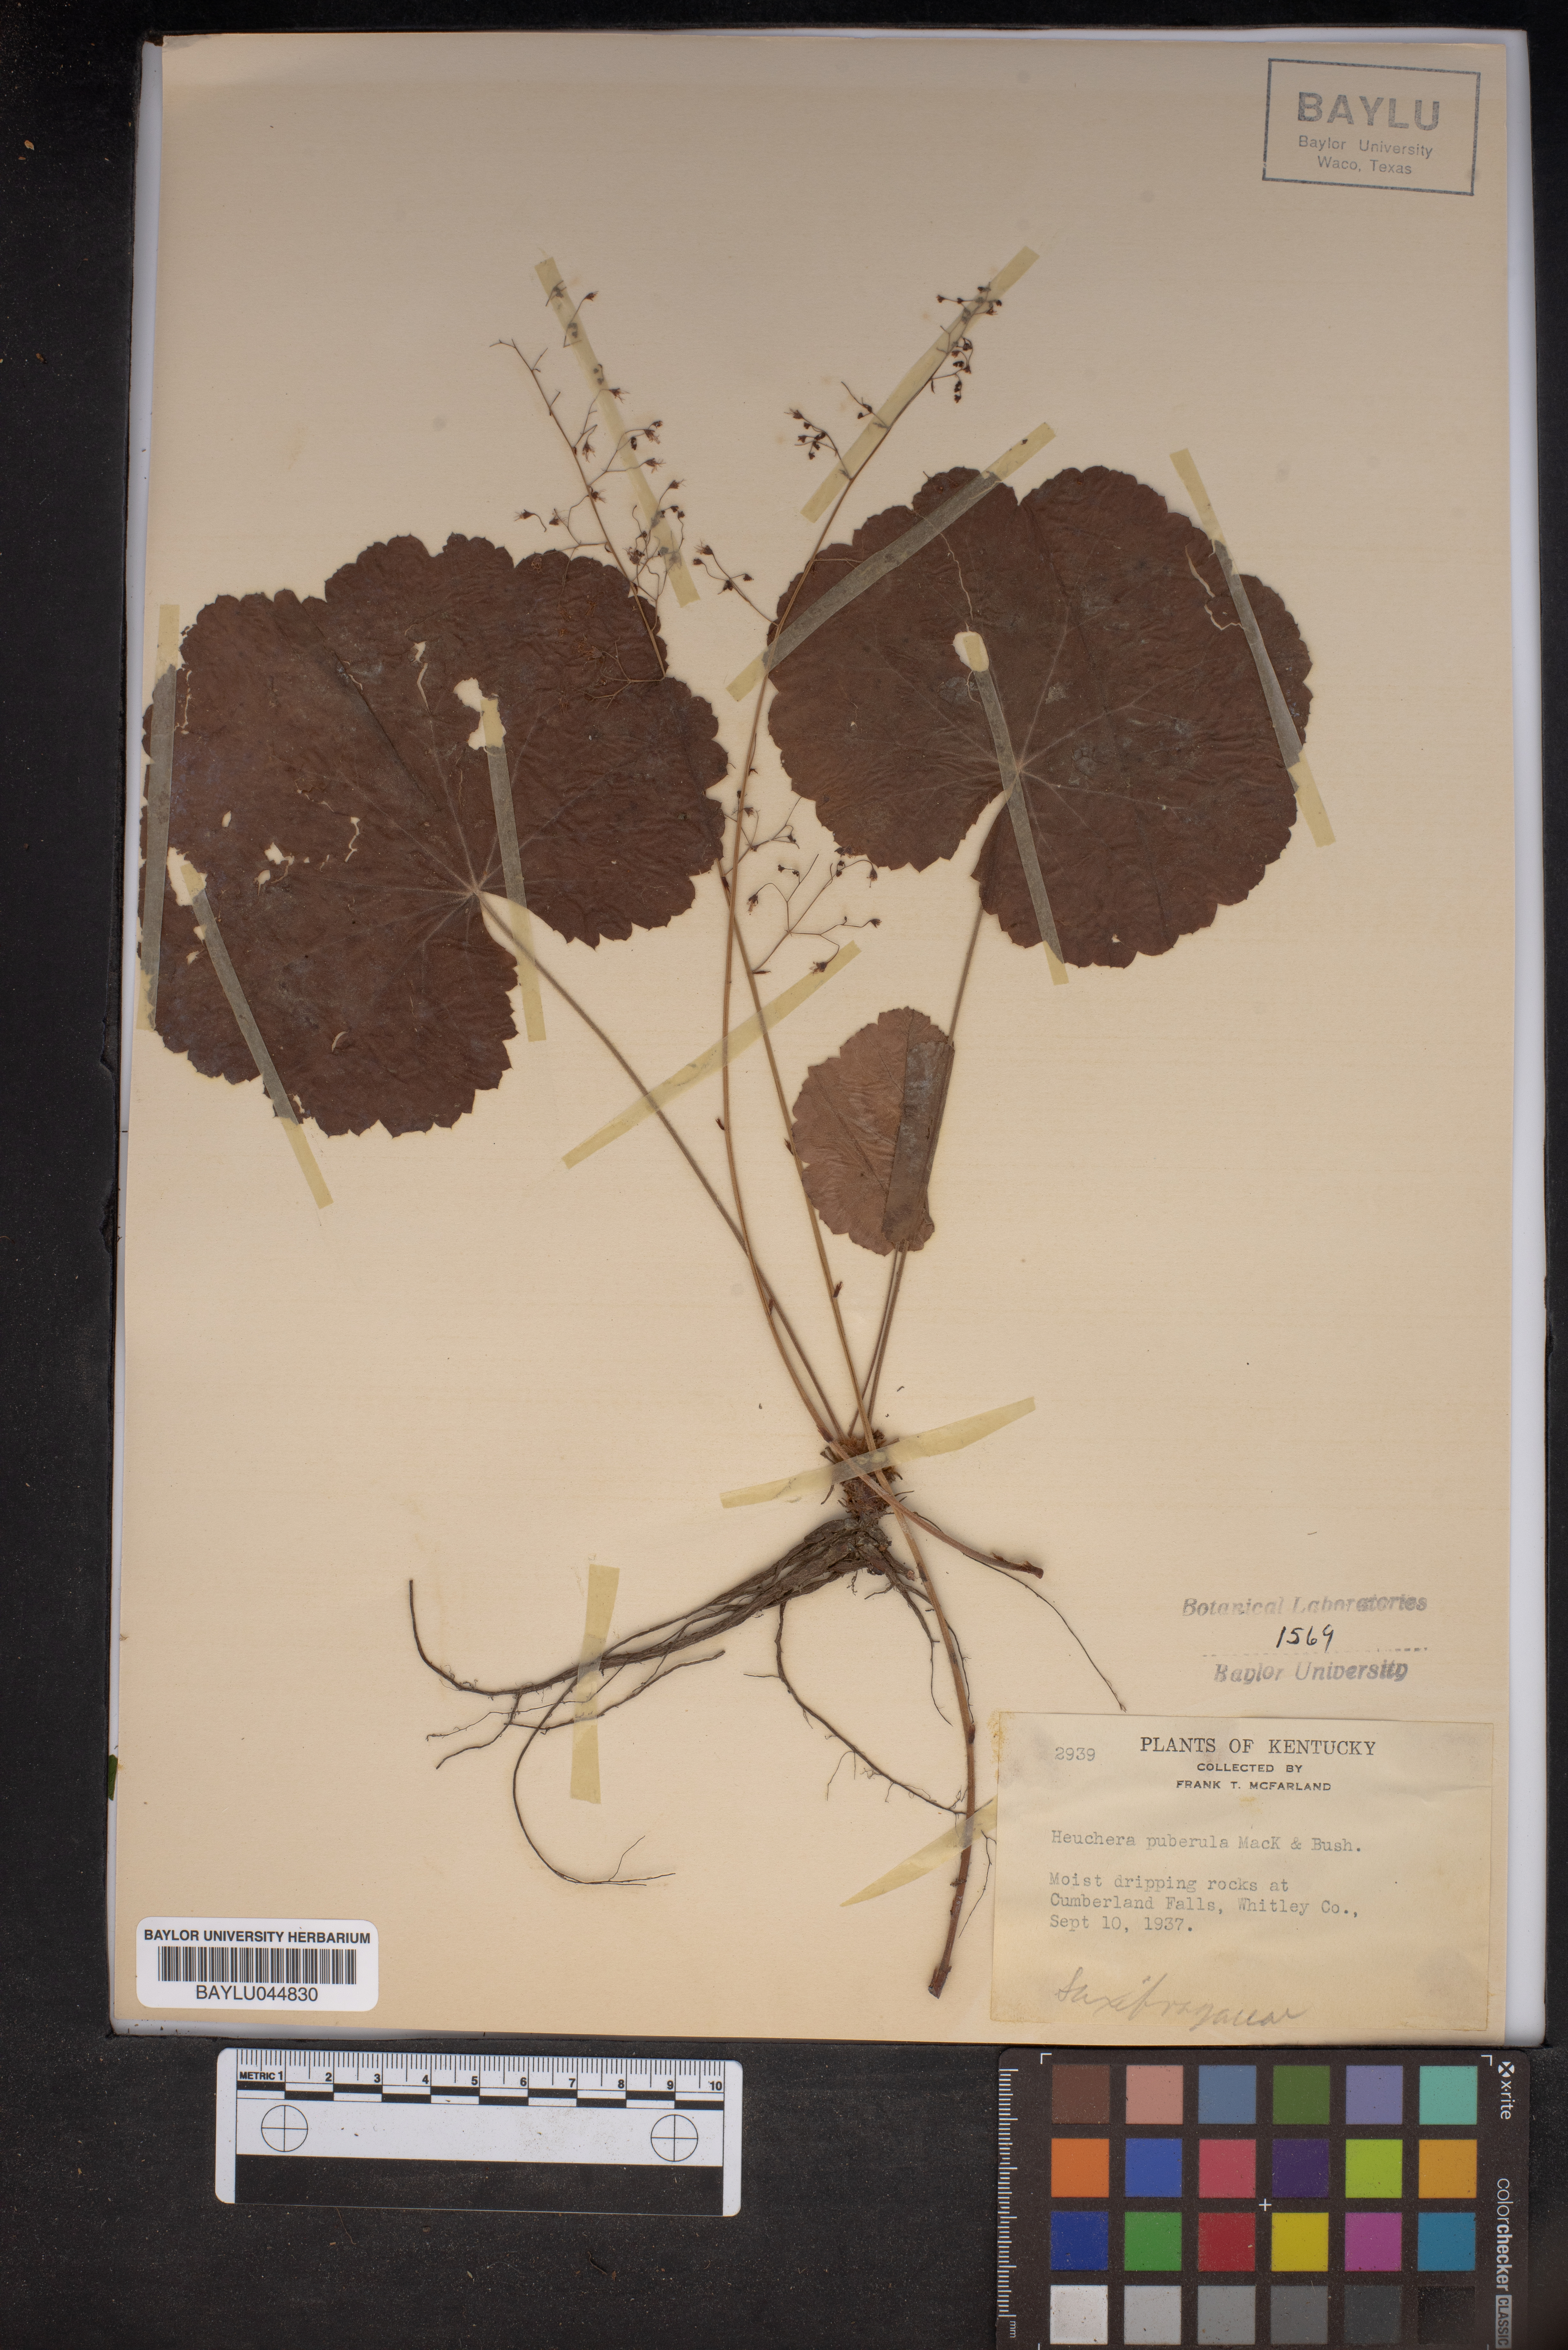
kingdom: Plantae
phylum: Tracheophyta
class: Magnoliopsida
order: Saxifragales
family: Saxifragaceae
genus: Heuchera
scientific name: Heuchera puberula
